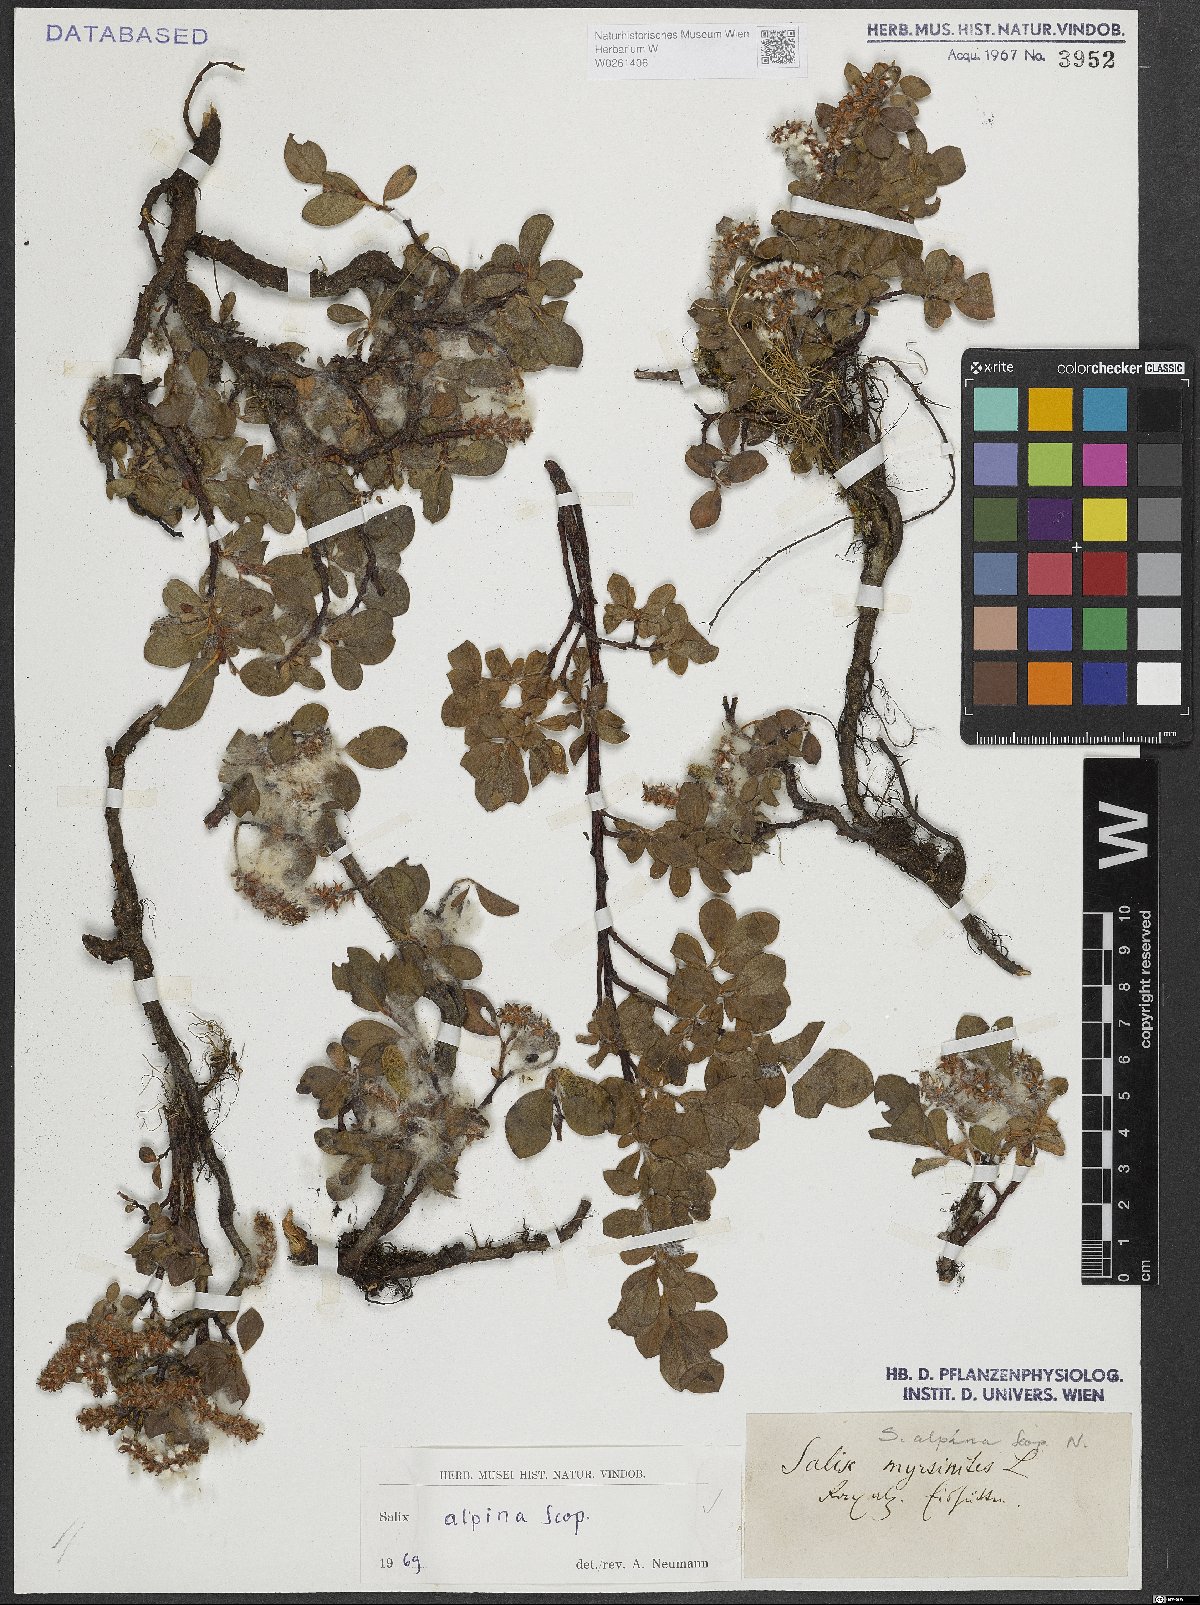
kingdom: Plantae
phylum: Tracheophyta
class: Magnoliopsida
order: Malpighiales
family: Salicaceae
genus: Salix
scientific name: Salix alpina
